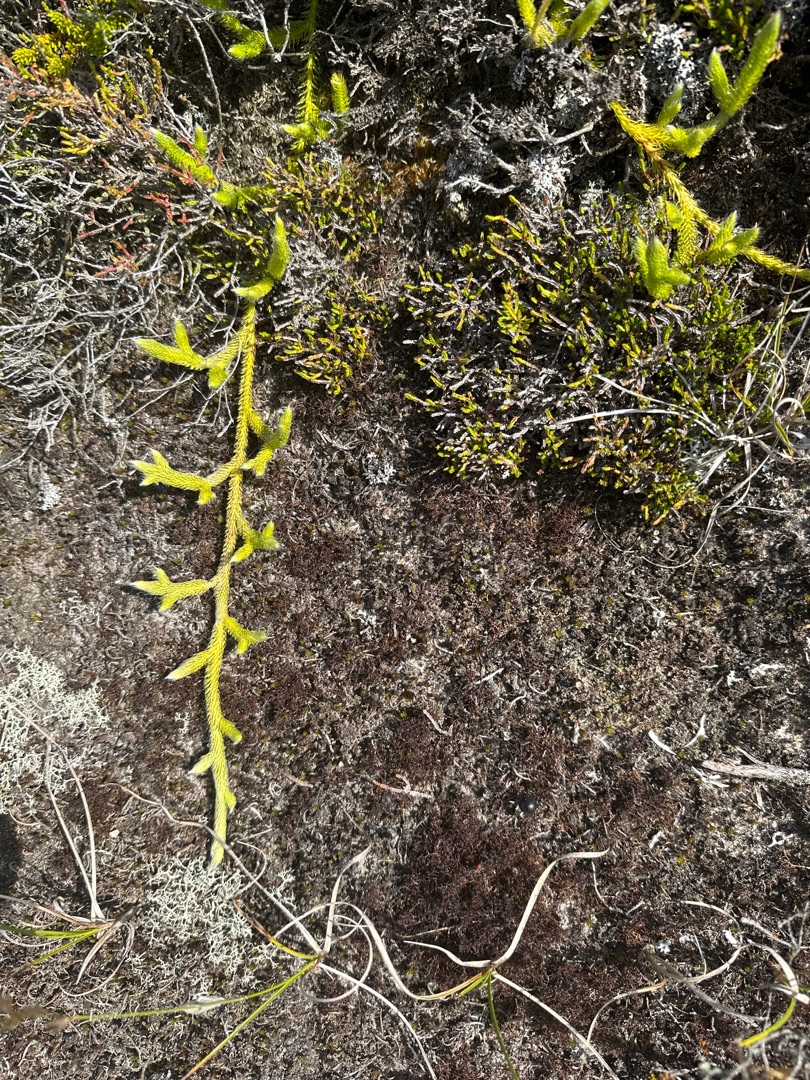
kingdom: Plantae
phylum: Tracheophyta
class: Lycopodiopsida
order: Lycopodiales
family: Lycopodiaceae
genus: Lycopodium
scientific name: Lycopodium clavatum
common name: Almindelig ulvefod
